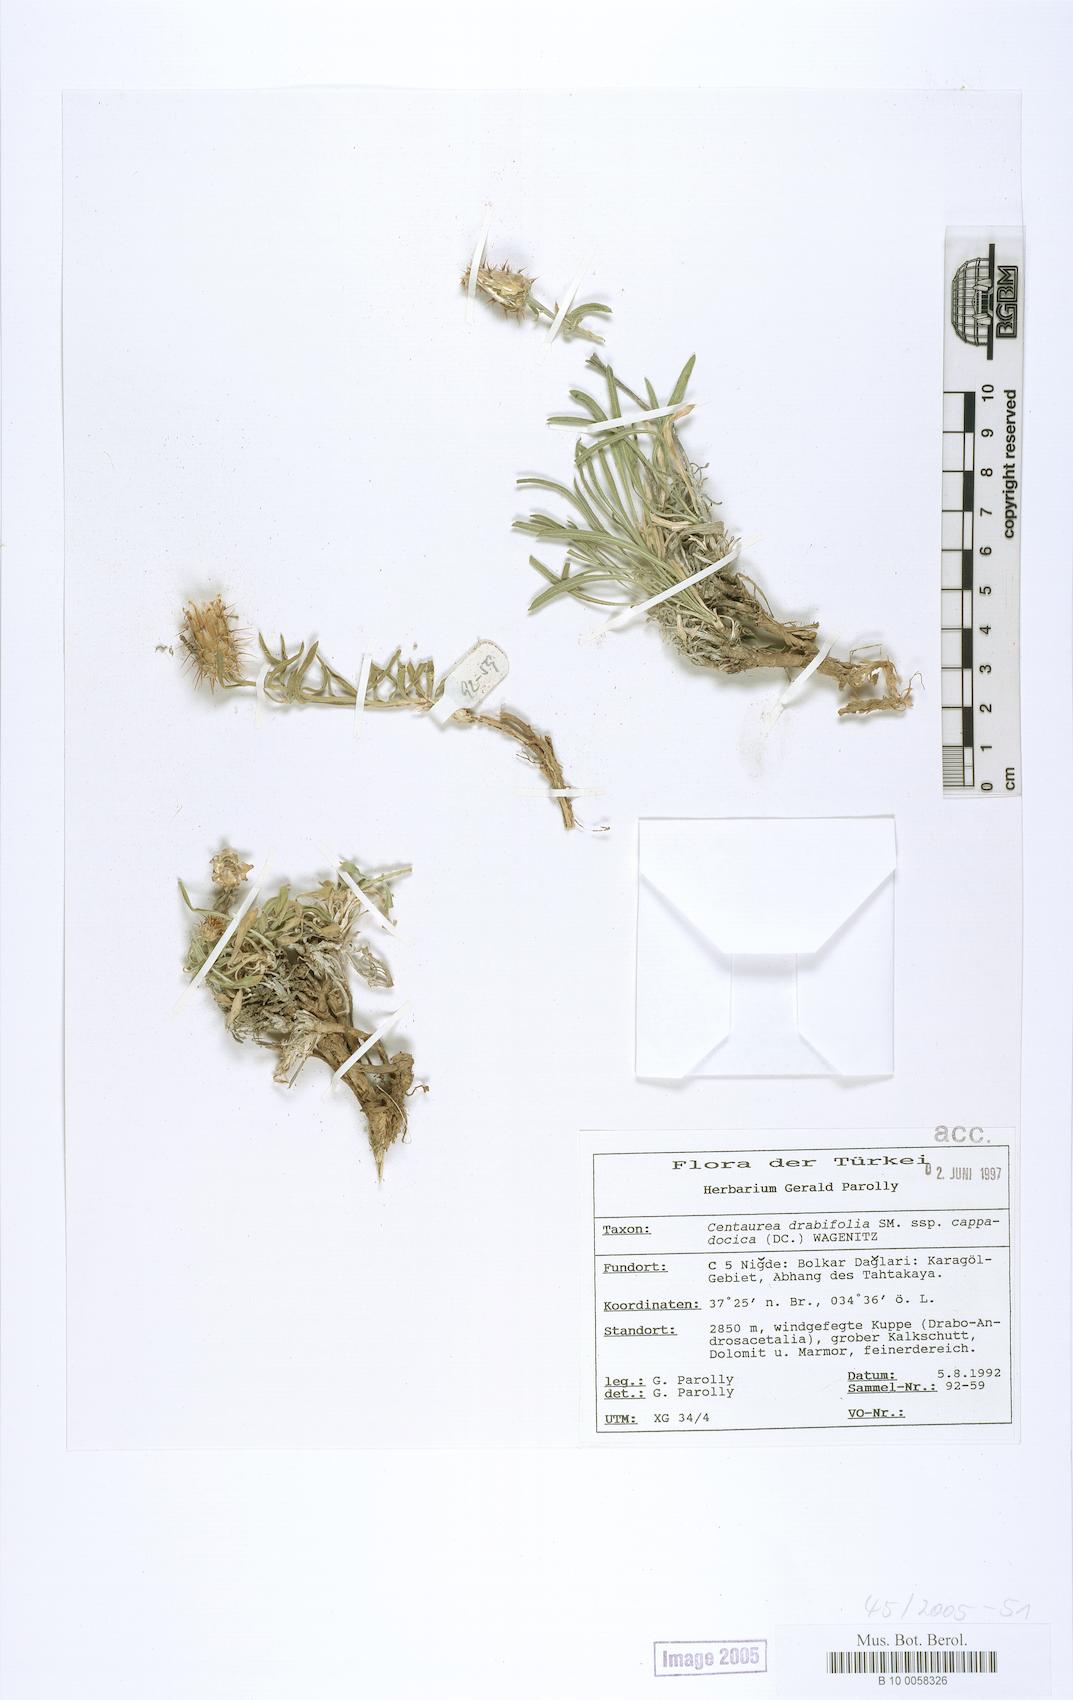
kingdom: Plantae
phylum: Tracheophyta
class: Magnoliopsida
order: Asterales
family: Asteraceae
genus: Centaurea
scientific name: Centaurea drabifolia
